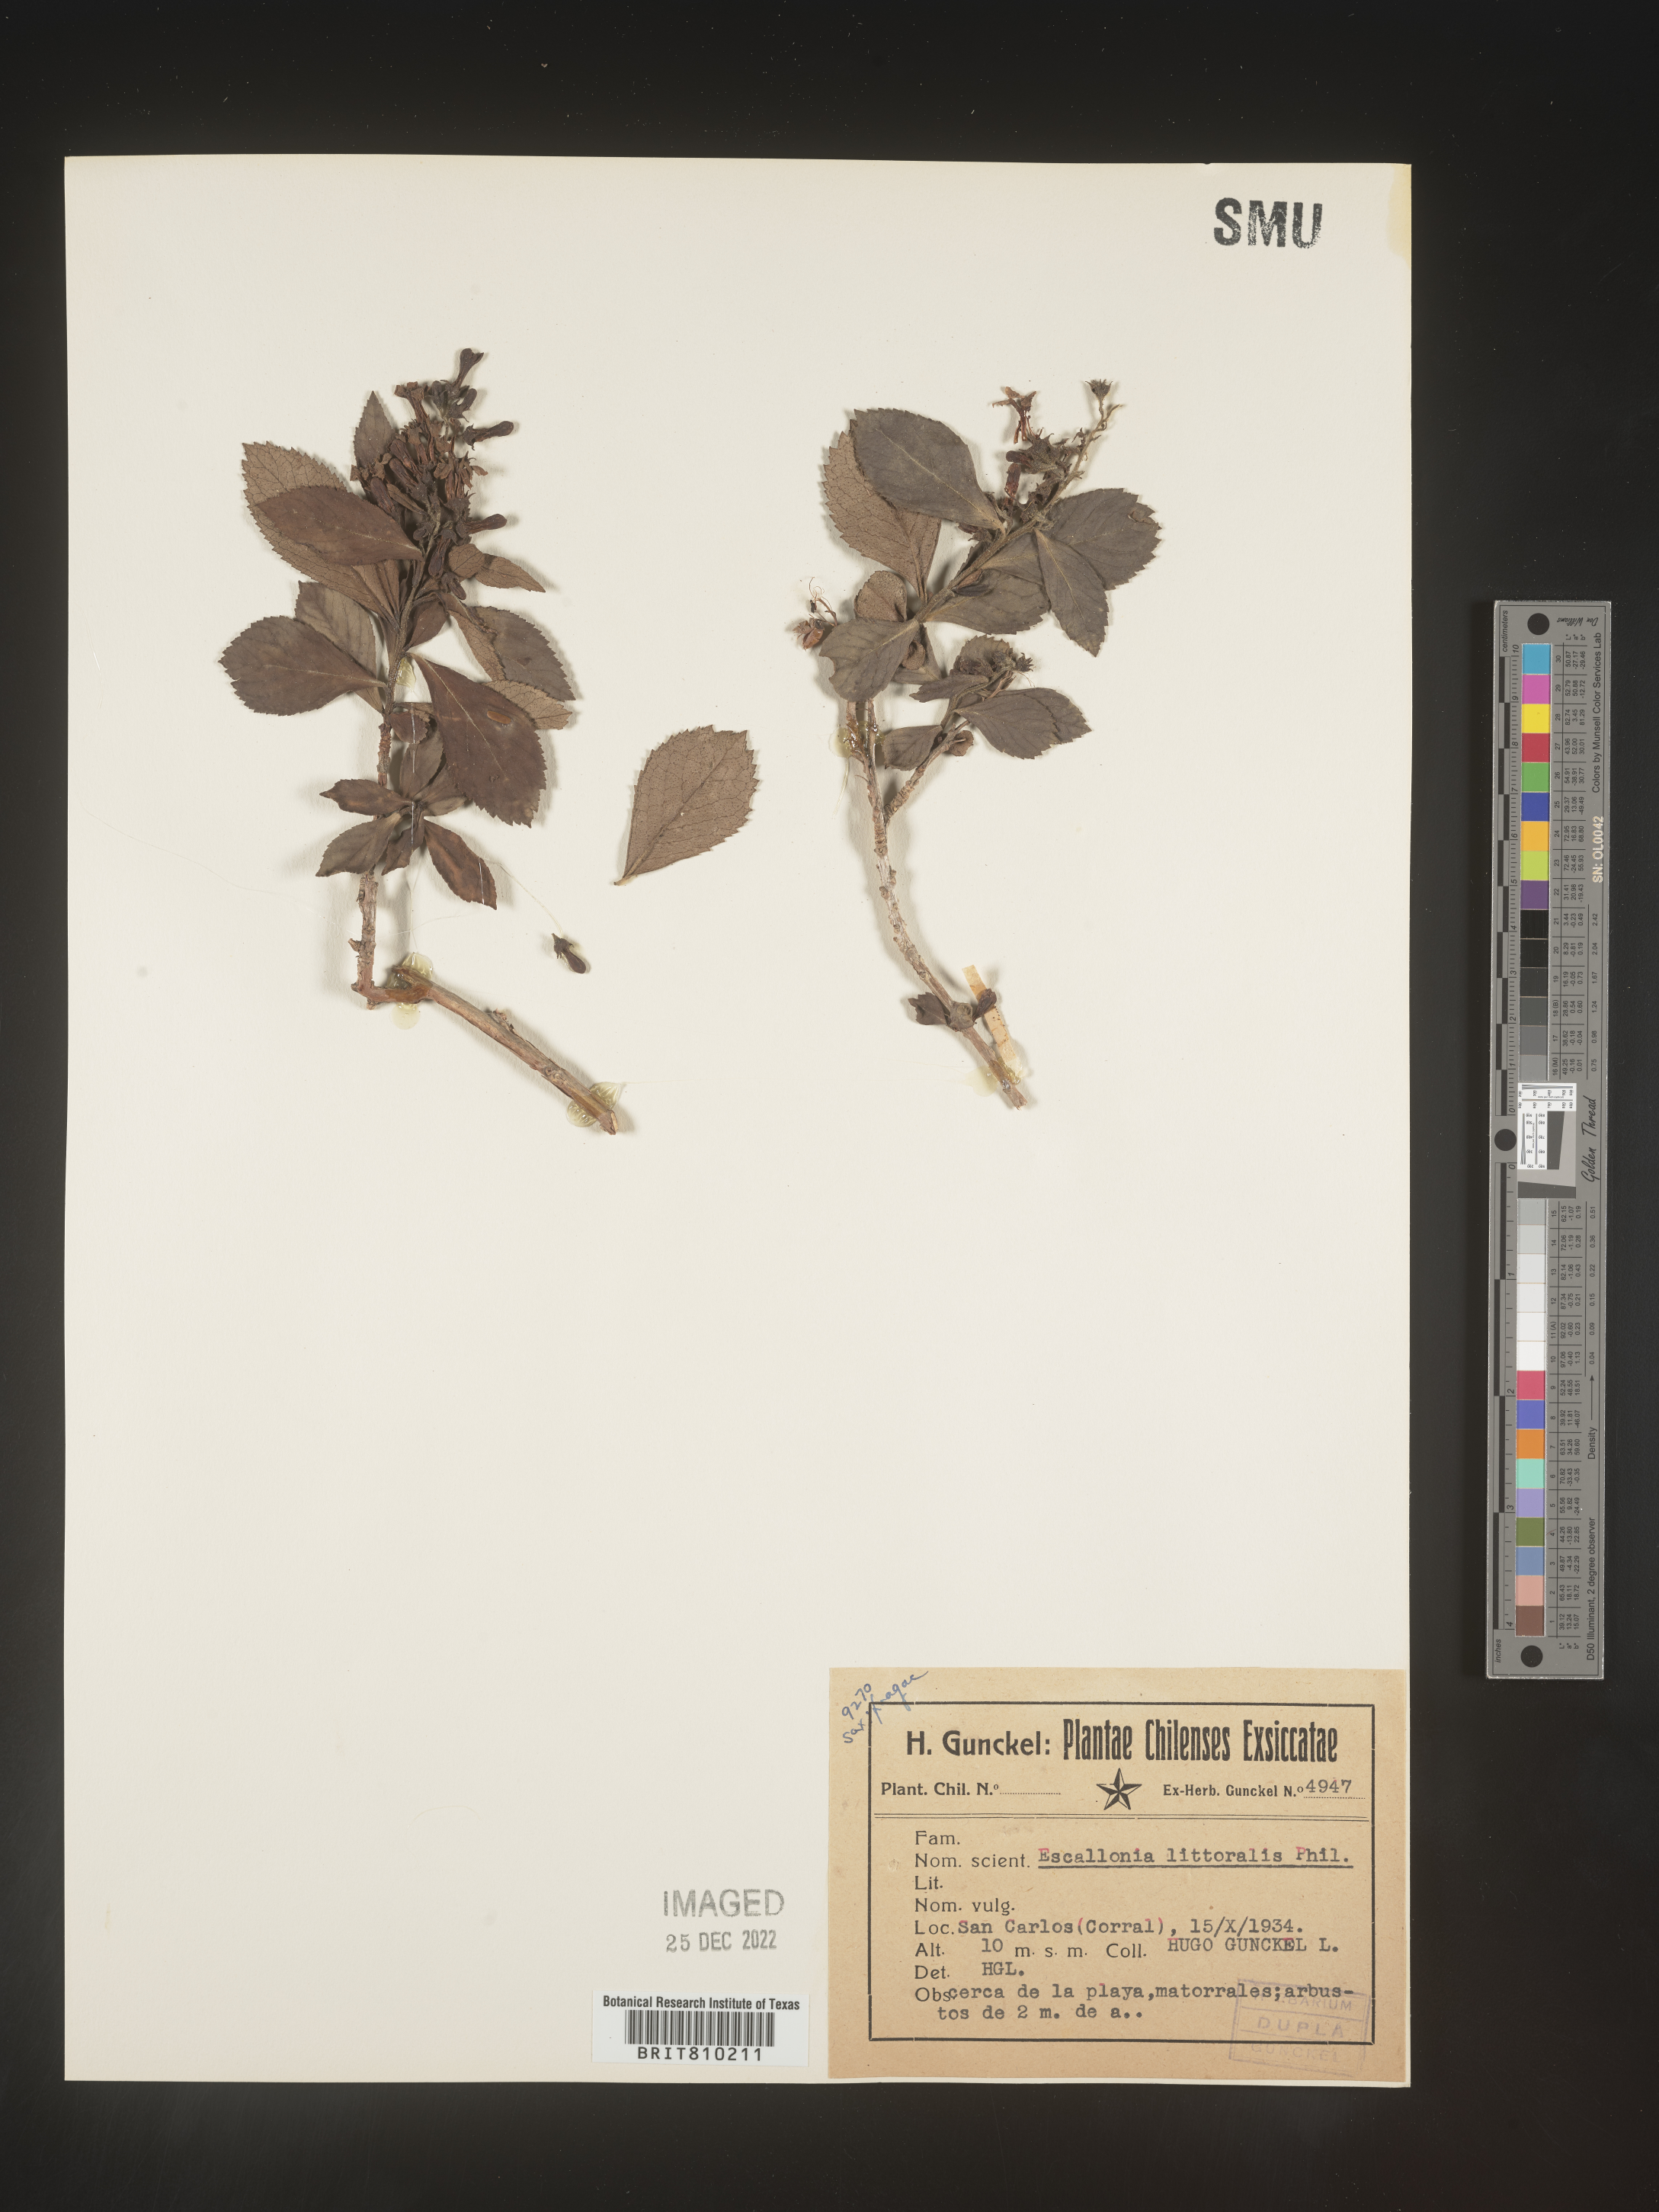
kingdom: Plantae
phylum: Tracheophyta
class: Magnoliopsida
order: Escalloniales
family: Escalloniaceae
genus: Escallonia
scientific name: Escallonia
